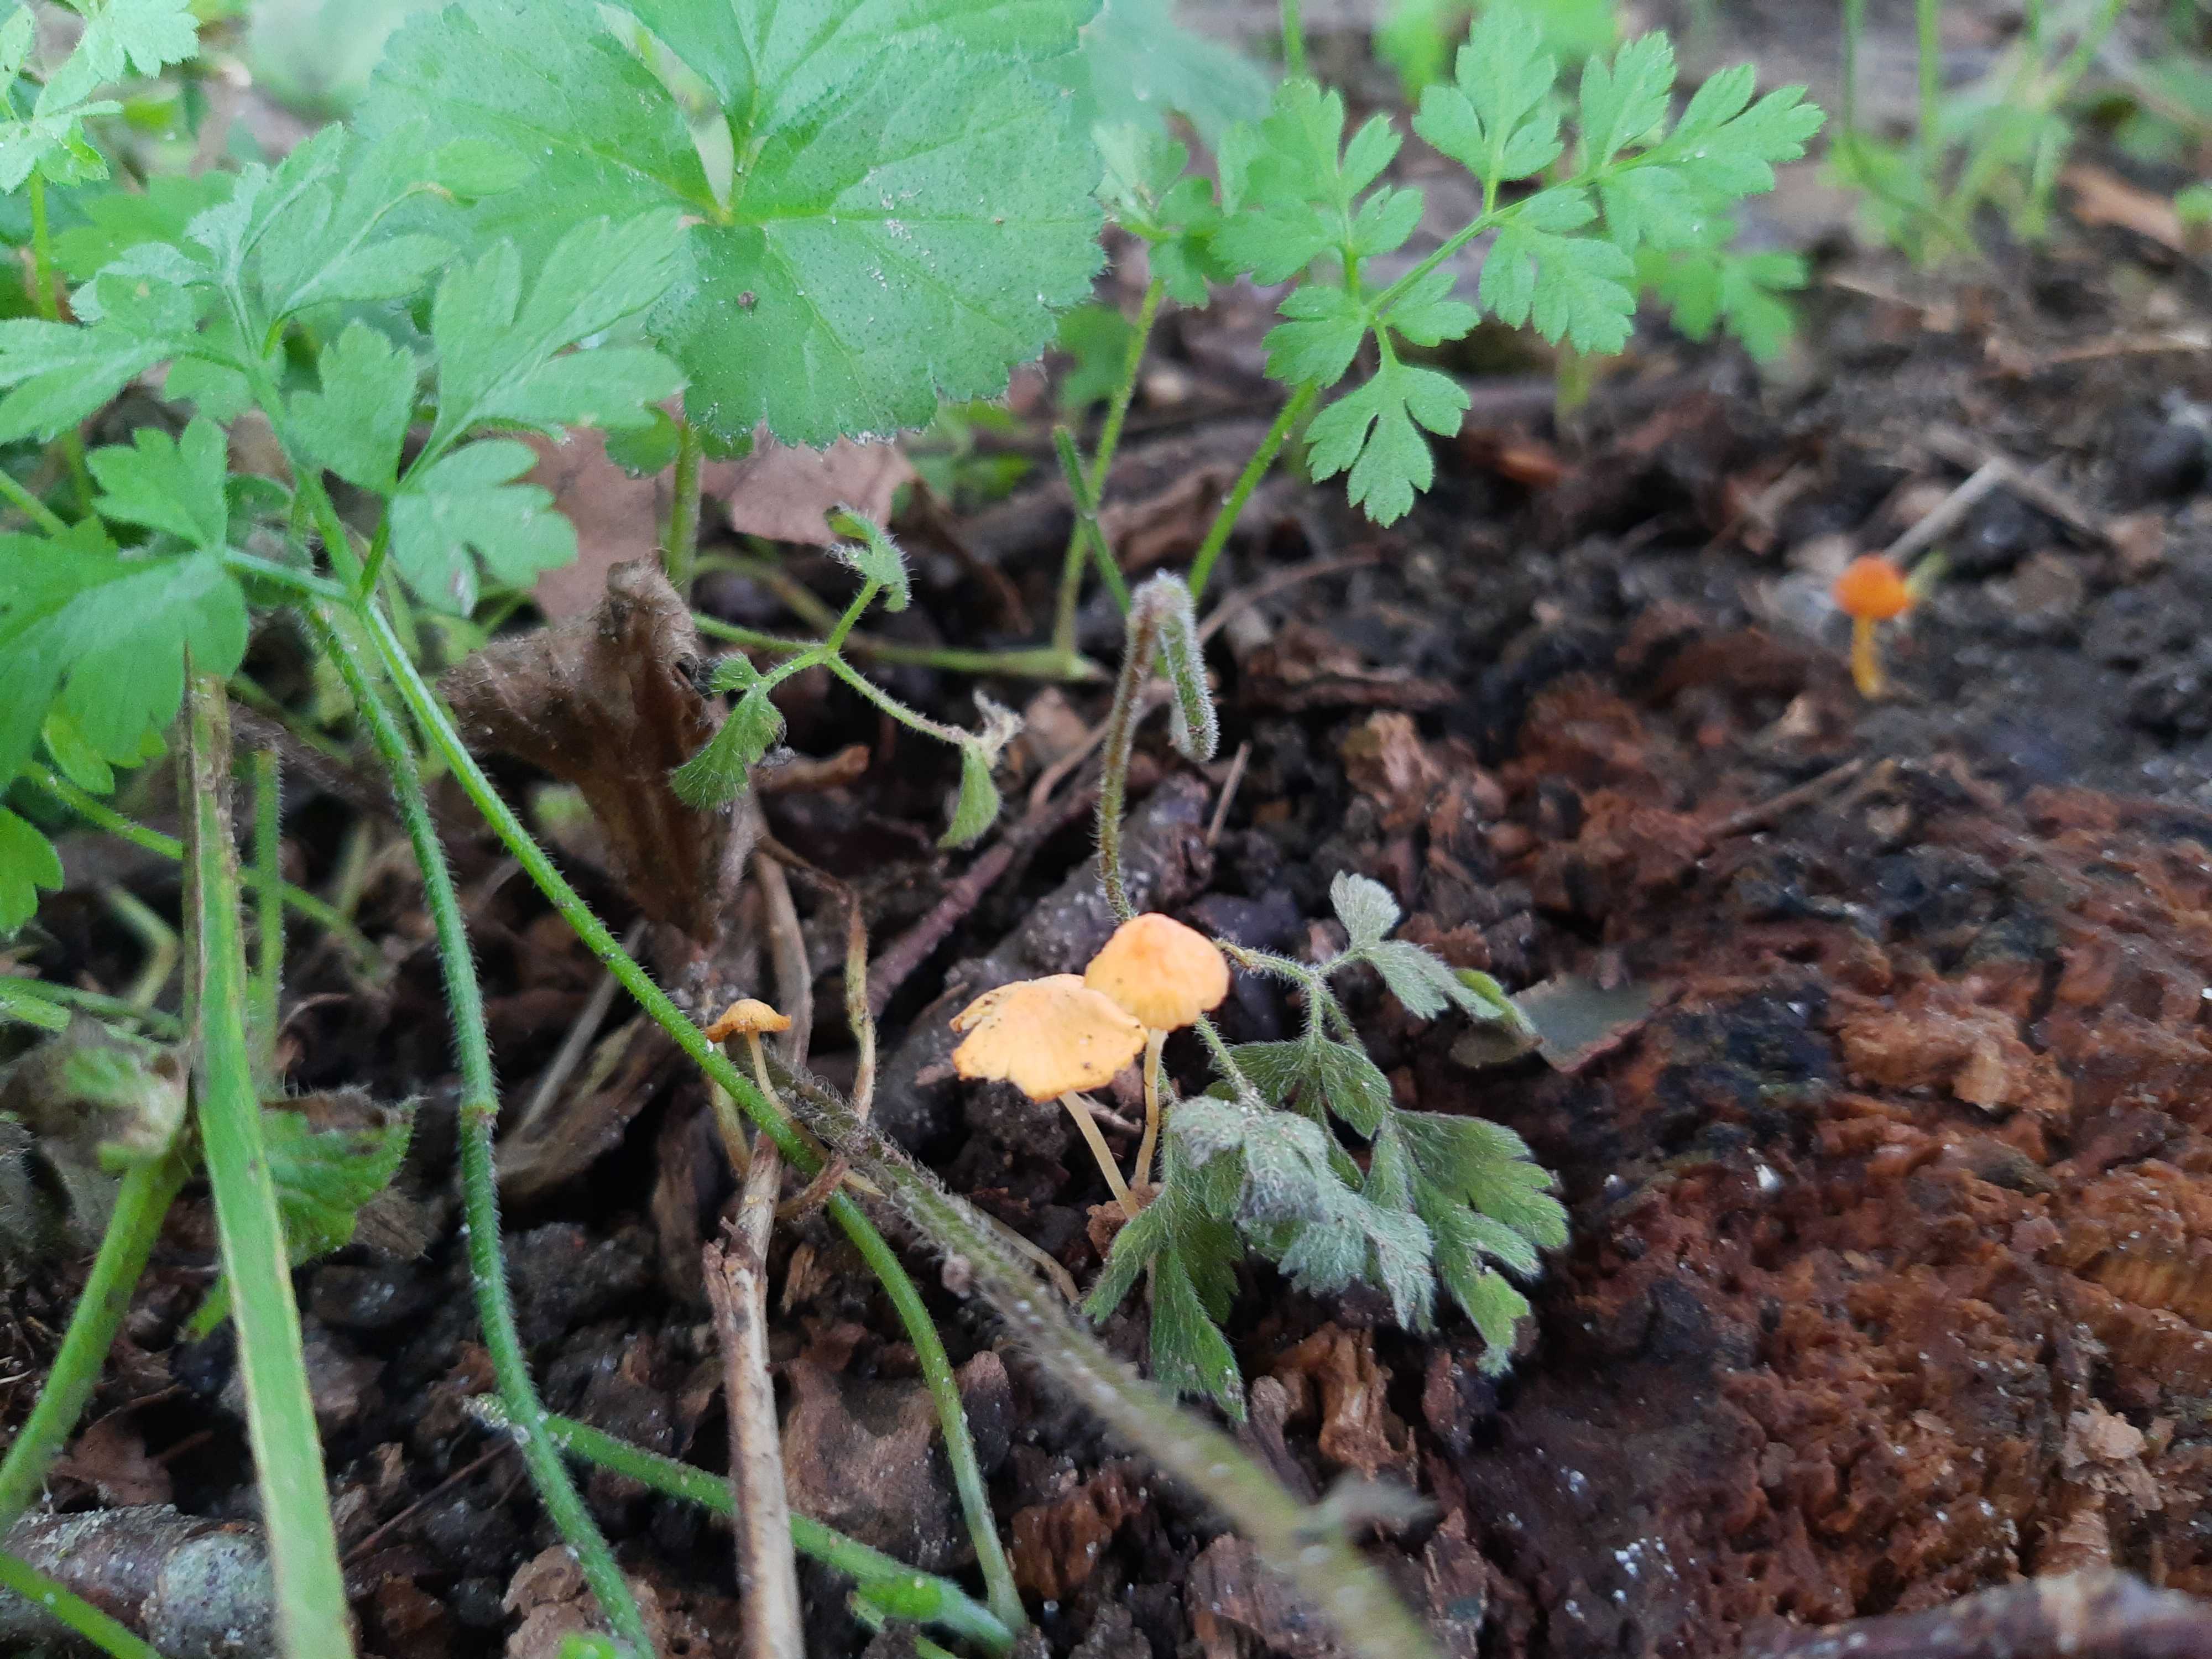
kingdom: Fungi
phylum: Basidiomycota
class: Agaricomycetes
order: Agaricales
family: Mycenaceae
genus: Mycena
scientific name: Mycena acicula
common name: orange huesvamp
